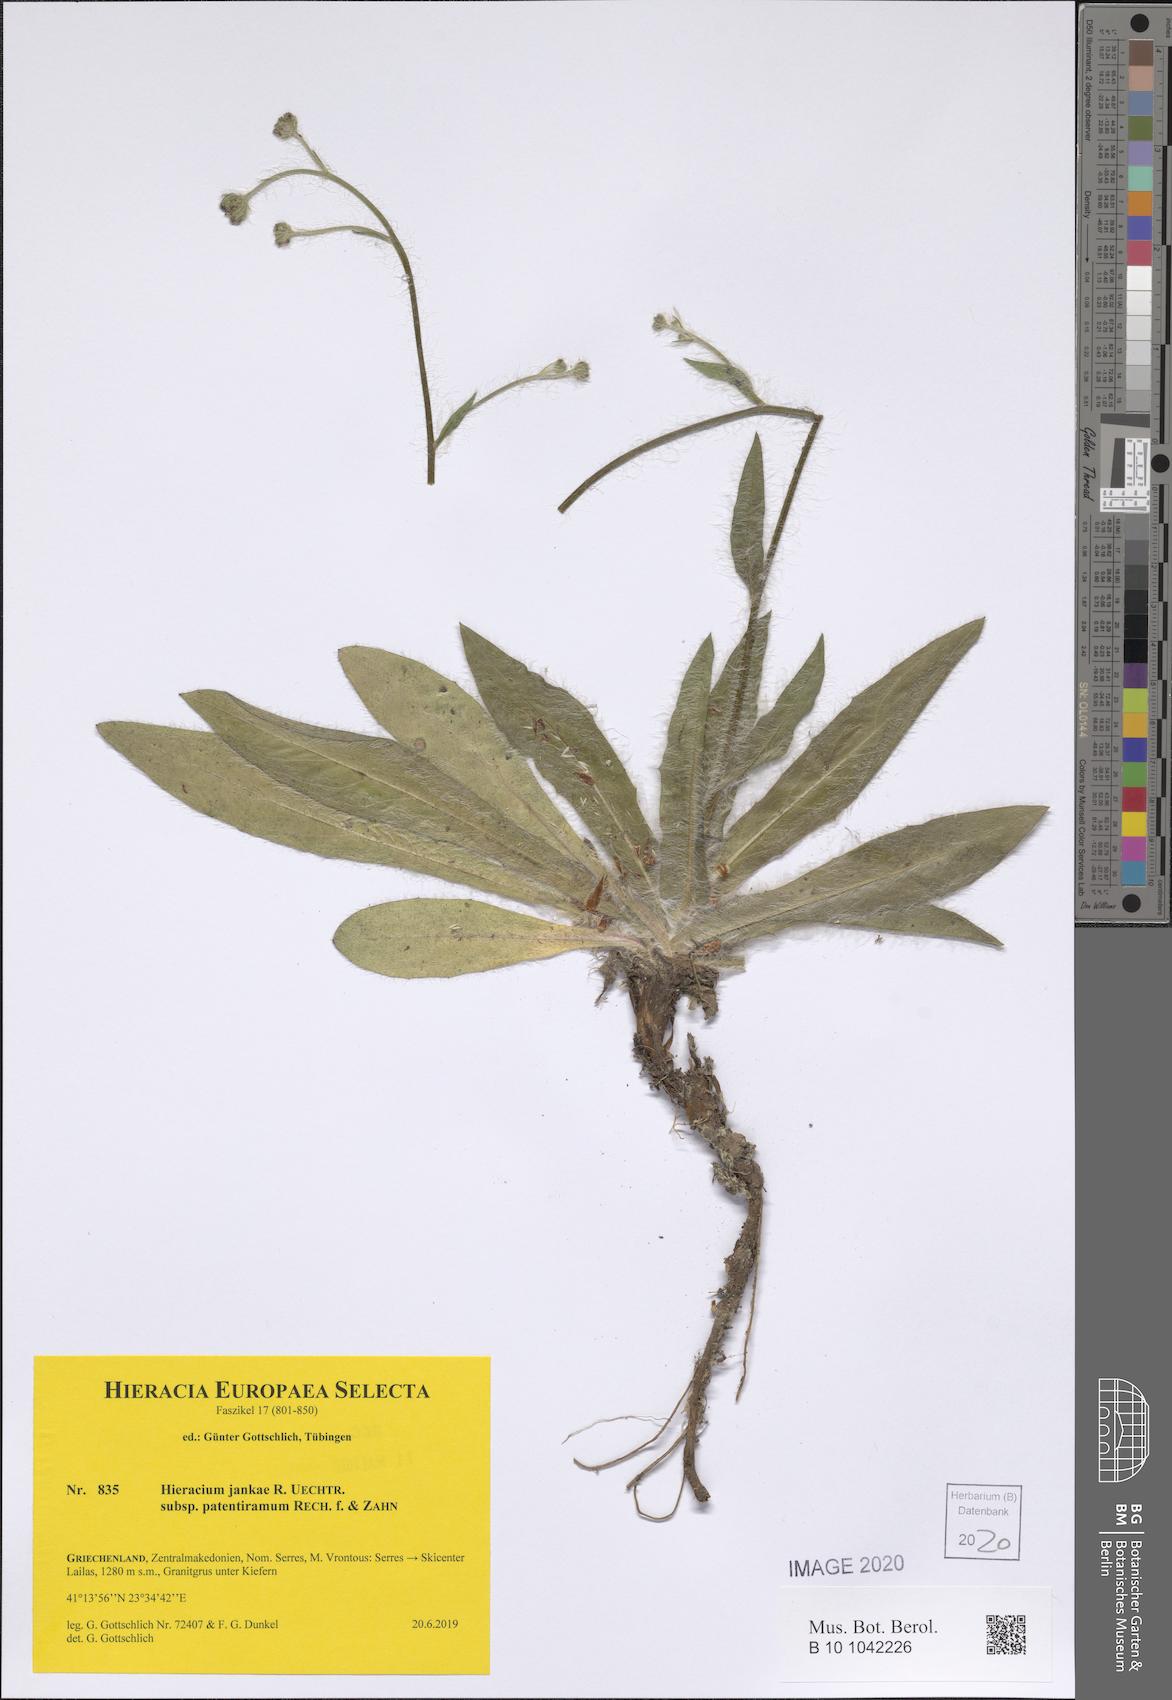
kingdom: Plantae
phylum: Tracheophyta
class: Magnoliopsida
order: Asterales
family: Asteraceae
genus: Hieracium
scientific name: Hieracium jankae
